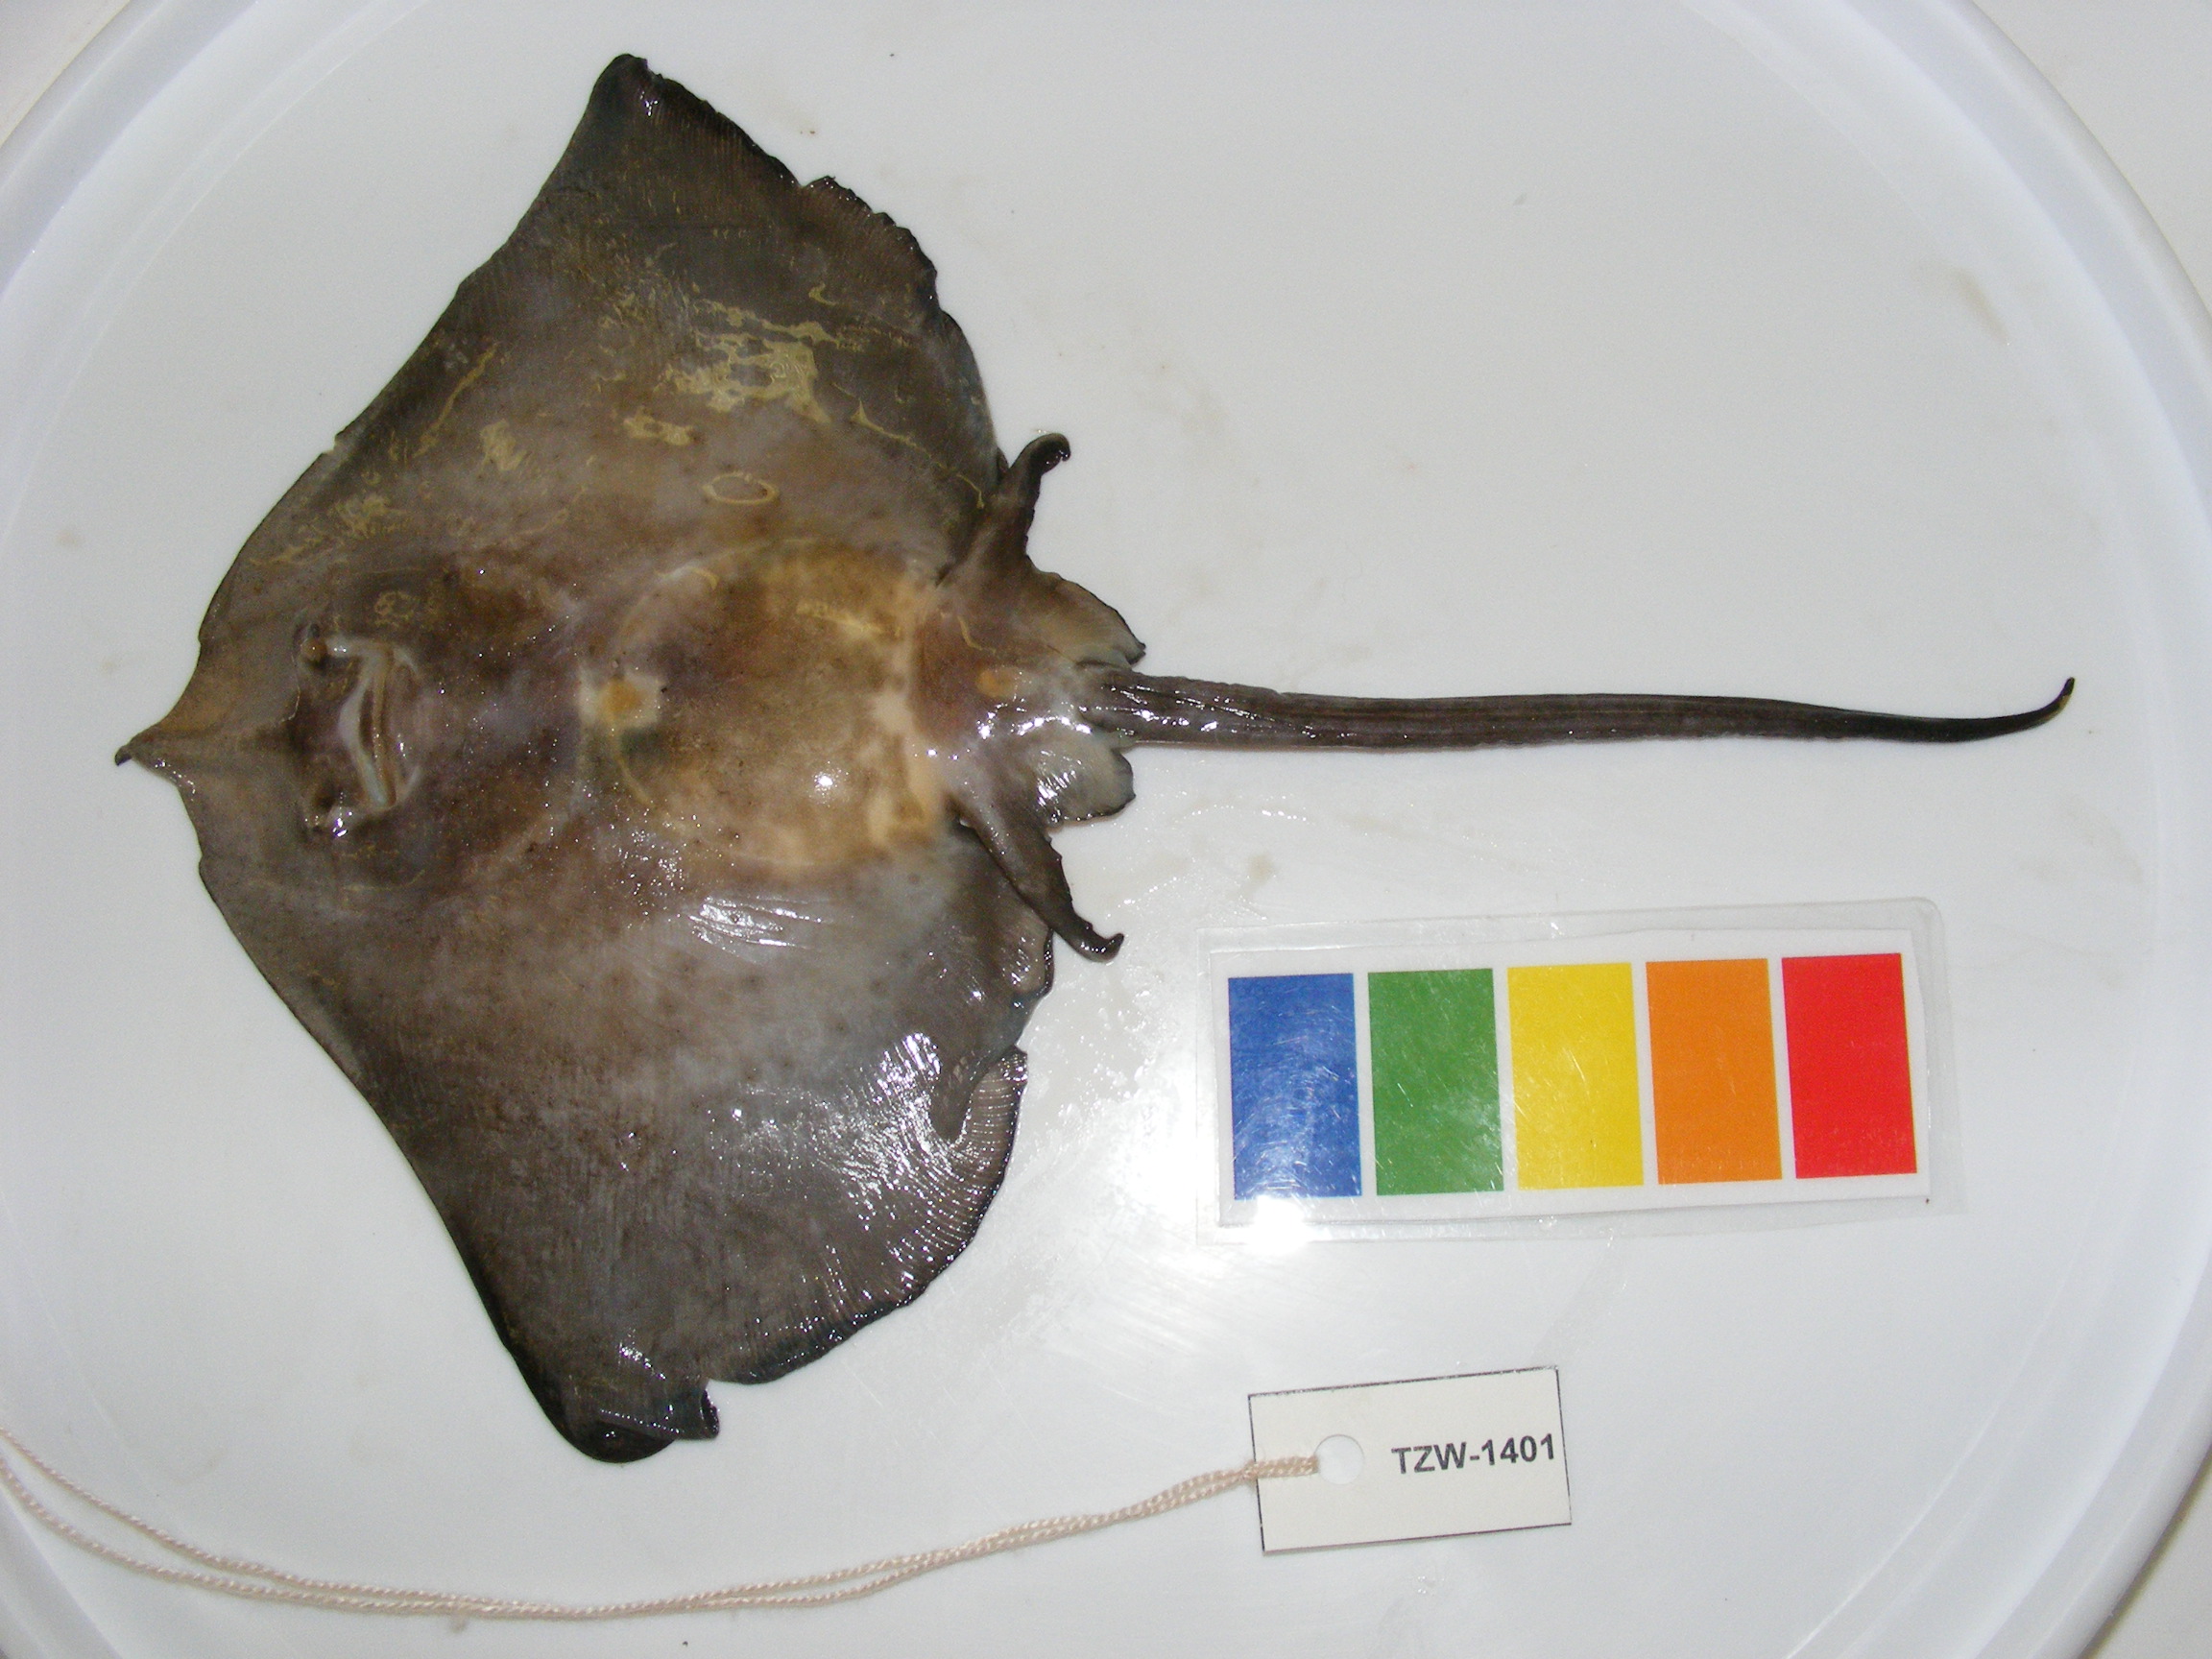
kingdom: Animalia
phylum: Chordata
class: Elasmobranchii
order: Rajiformes
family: Rajidae
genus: Raja
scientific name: Raja
